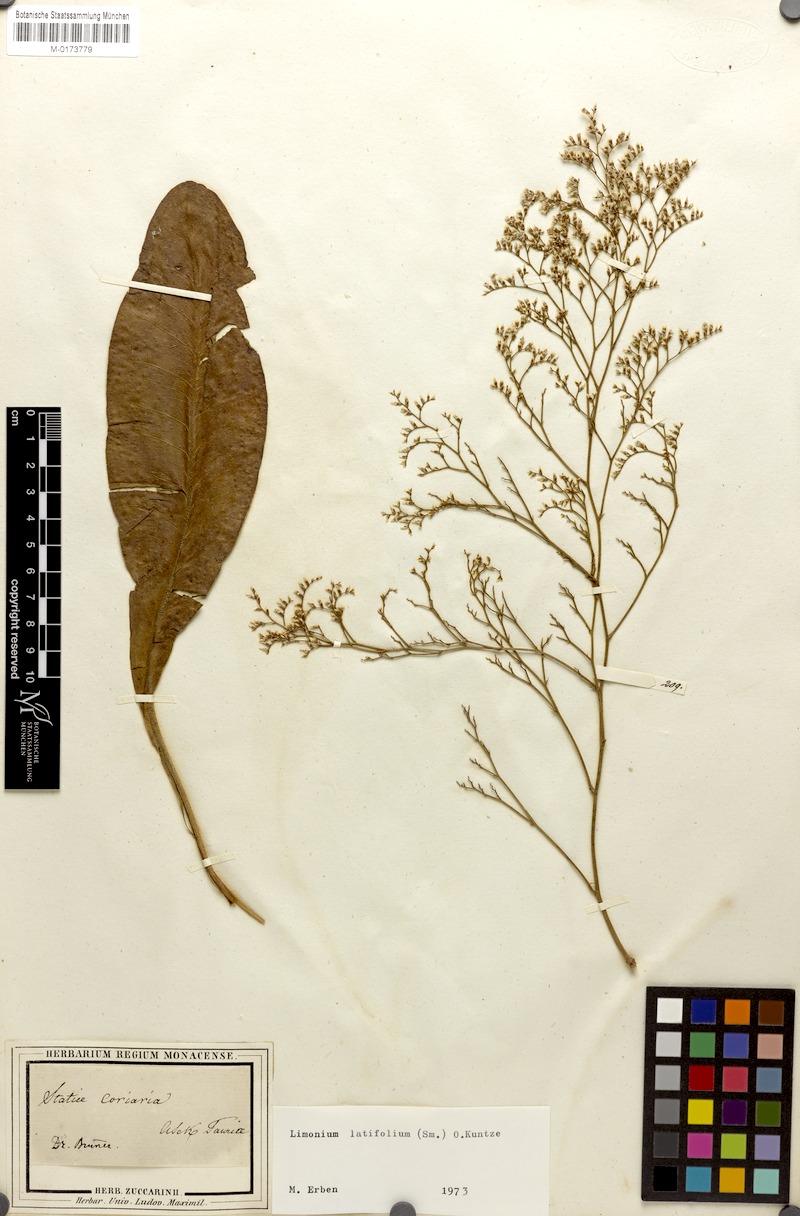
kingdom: Plantae
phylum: Tracheophyta
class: Magnoliopsida
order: Caryophyllales
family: Plumbaginaceae
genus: Limonium
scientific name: Limonium platyphyllum
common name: Florist's sea lavender
